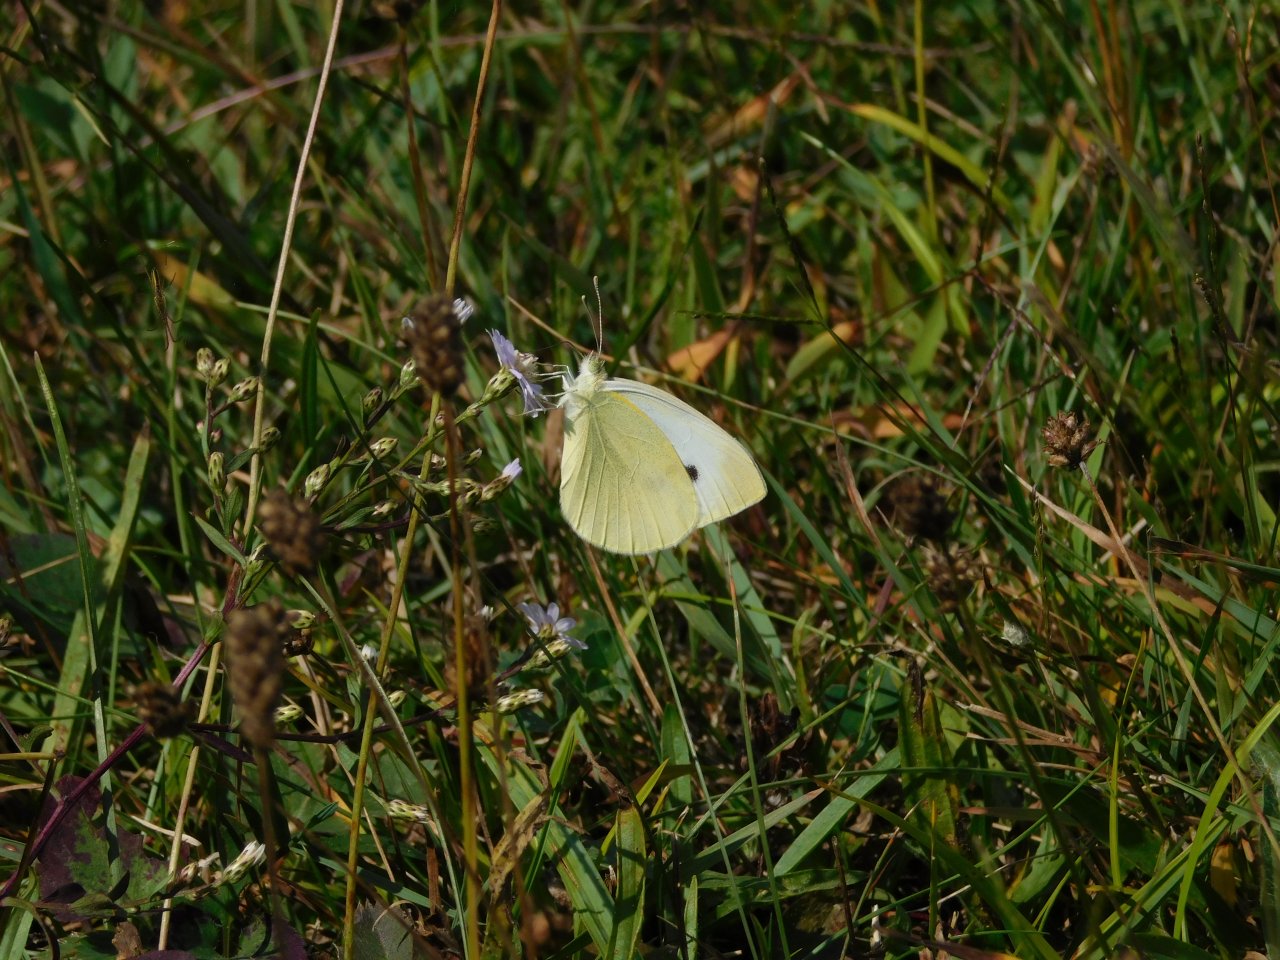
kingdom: Animalia
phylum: Arthropoda
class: Insecta
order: Lepidoptera
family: Pieridae
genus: Pieris
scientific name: Pieris rapae
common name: Cabbage White
